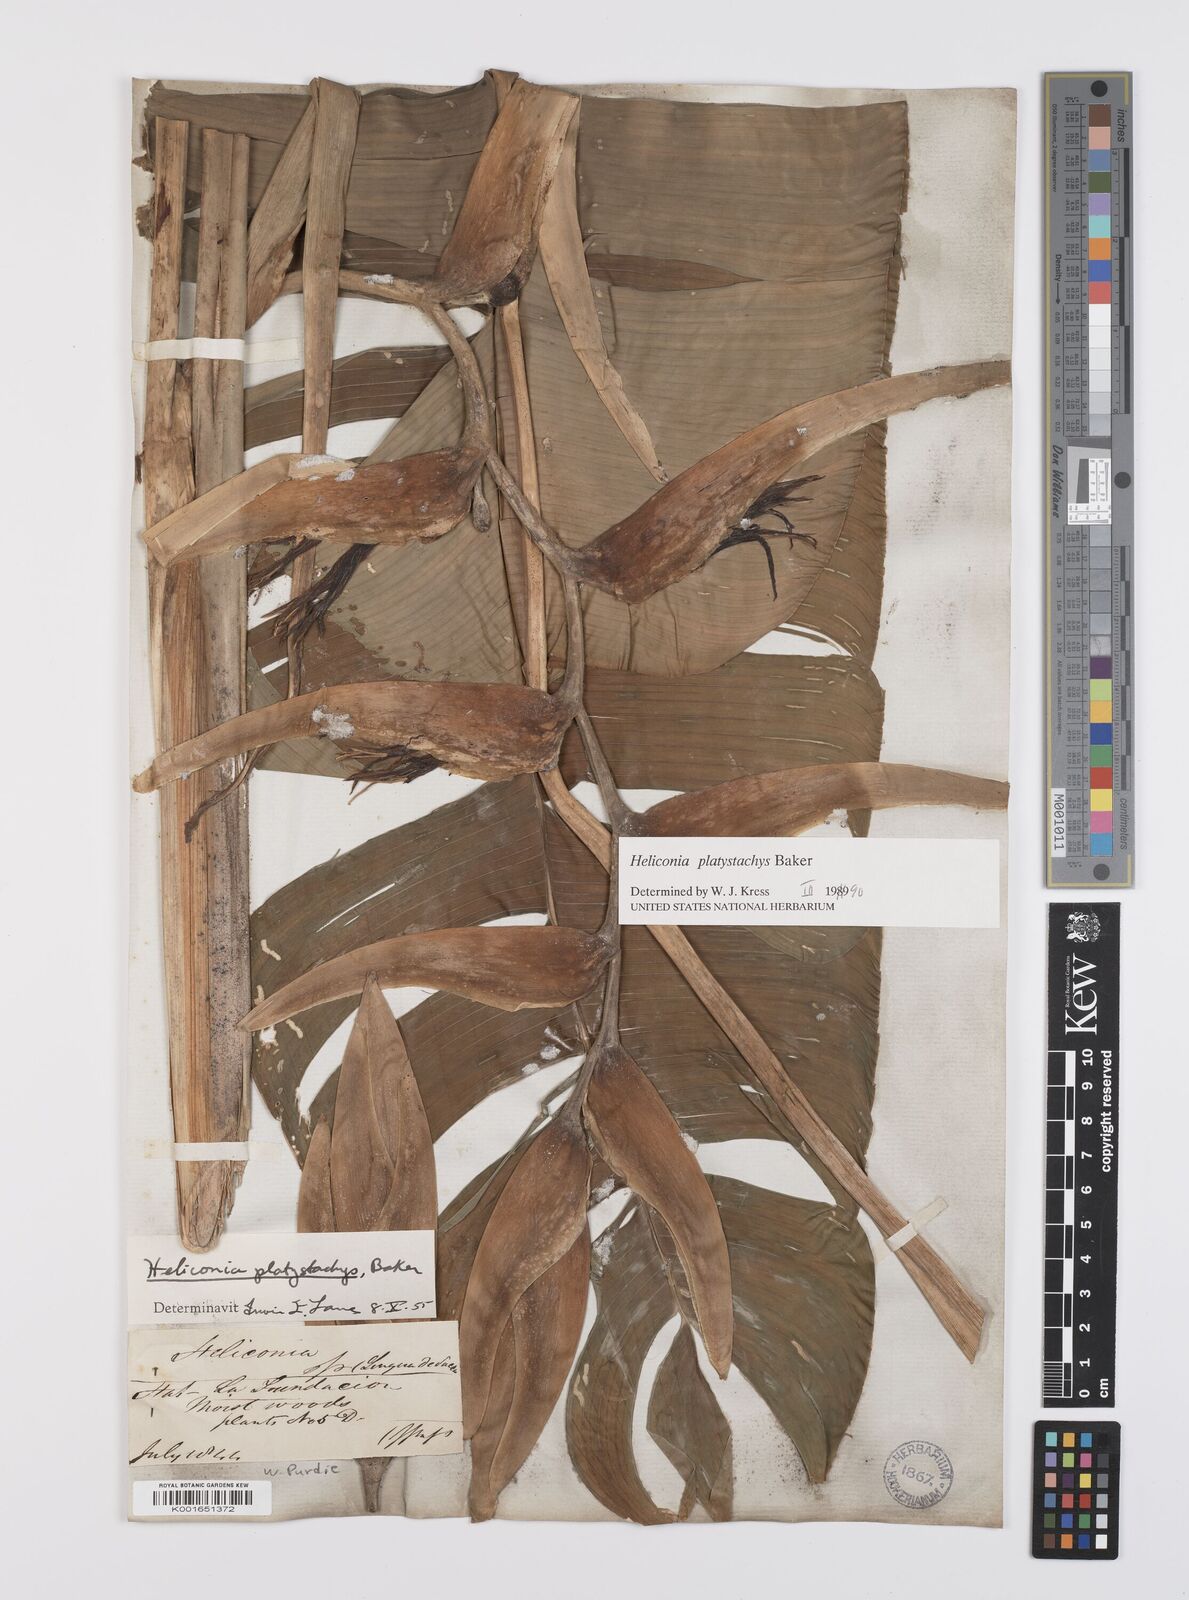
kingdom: Plantae
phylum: Tracheophyta
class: Liliopsida
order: Zingiberales
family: Heliconiaceae
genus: Heliconia
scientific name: Heliconia platystachys
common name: False bird of paradise
